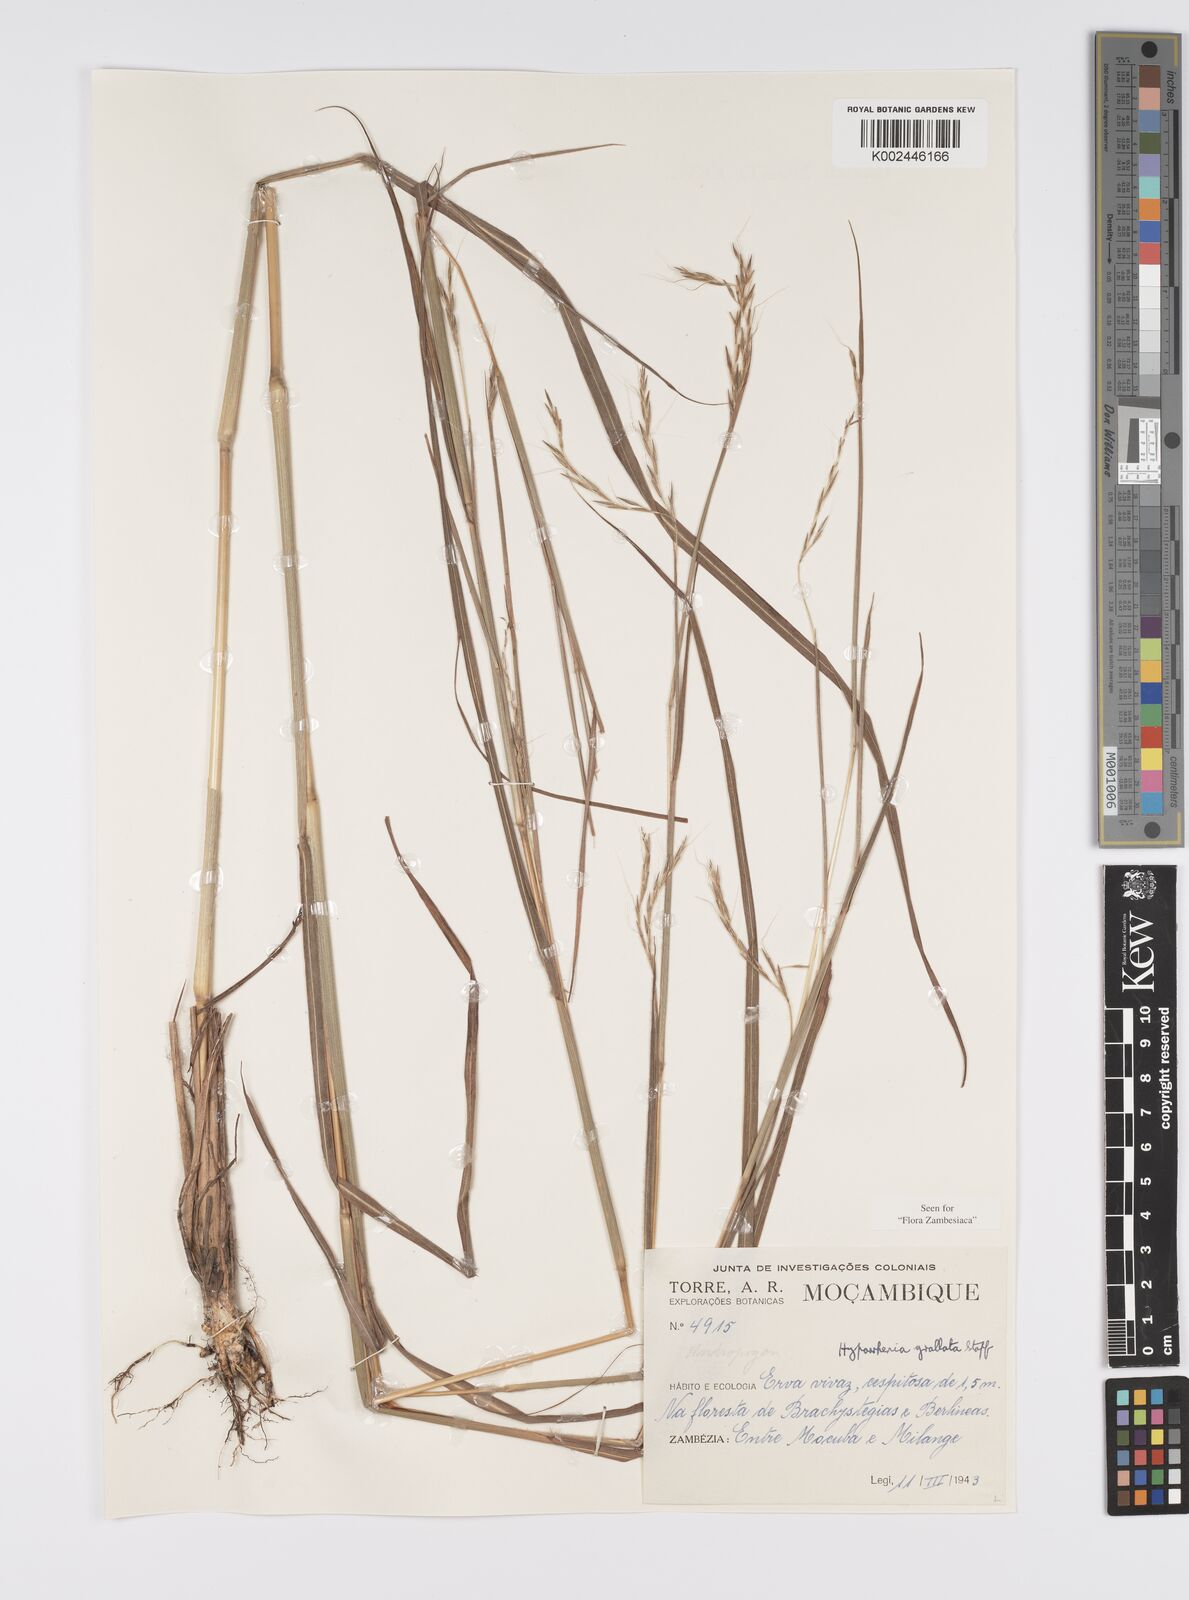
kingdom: Plantae
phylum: Tracheophyta
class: Liliopsida
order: Poales
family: Poaceae
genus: Elymandra
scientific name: Elymandra grallata
